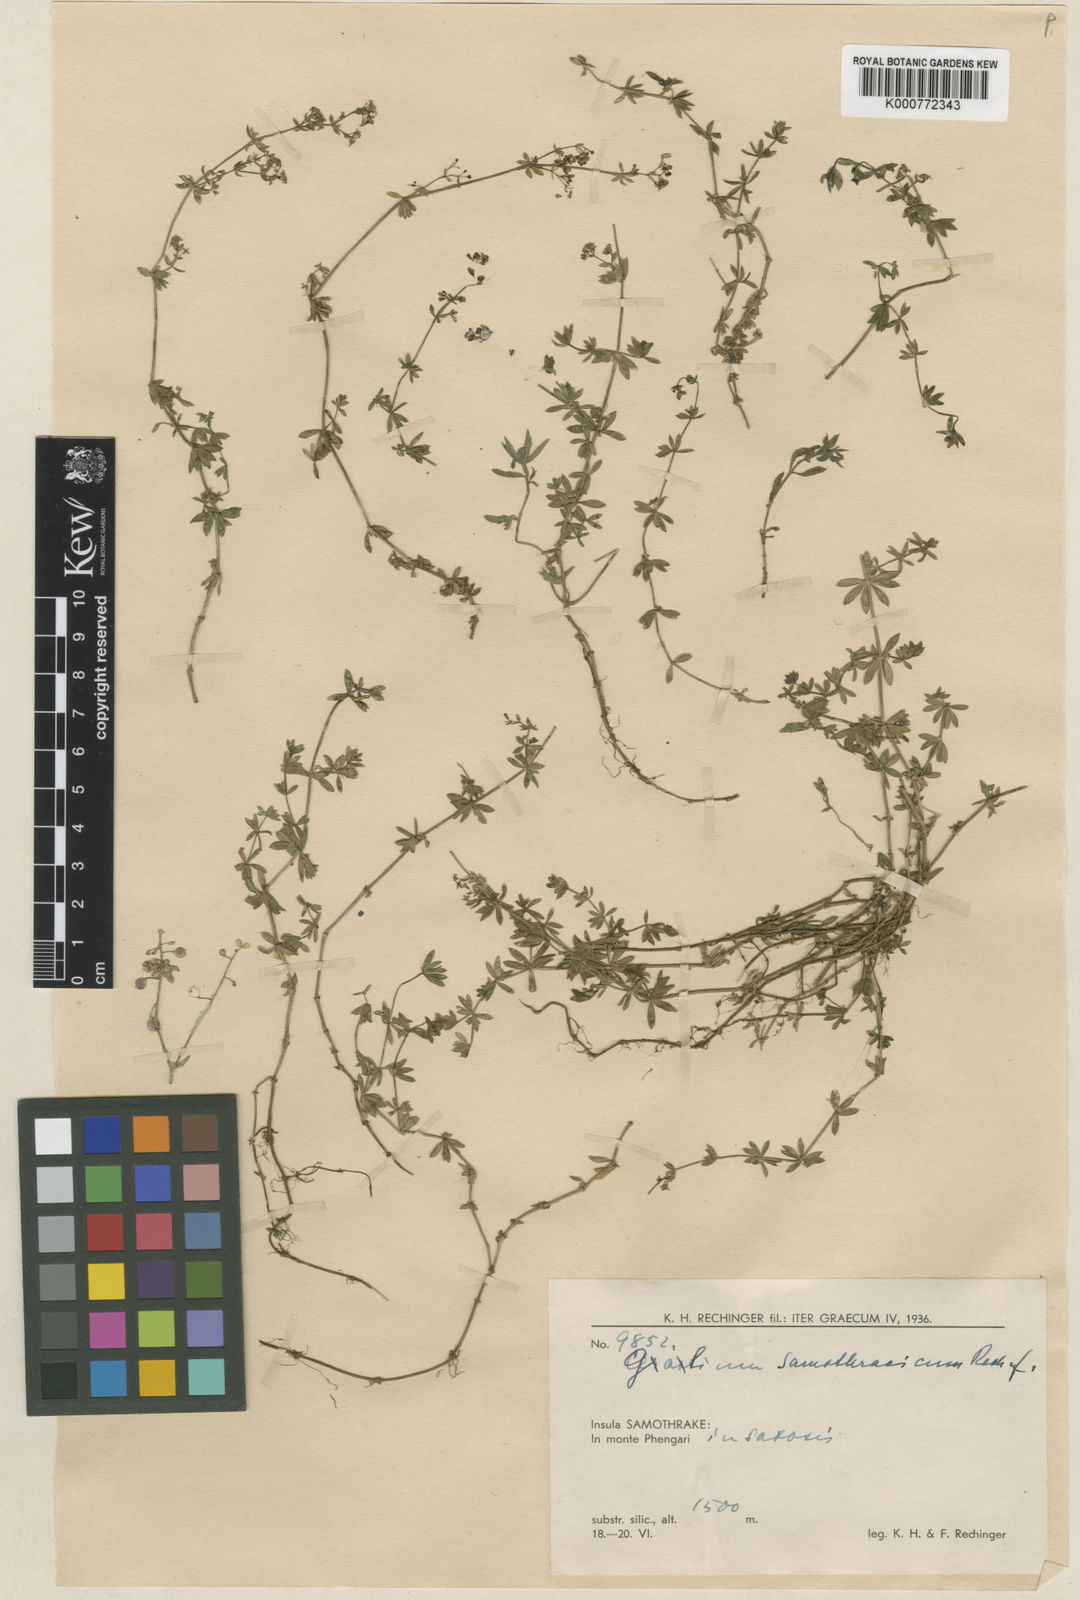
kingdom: Plantae
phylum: Tracheophyta
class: Magnoliopsida
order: Gentianales
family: Rubiaceae
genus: Galium
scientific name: Galium samothracicum
